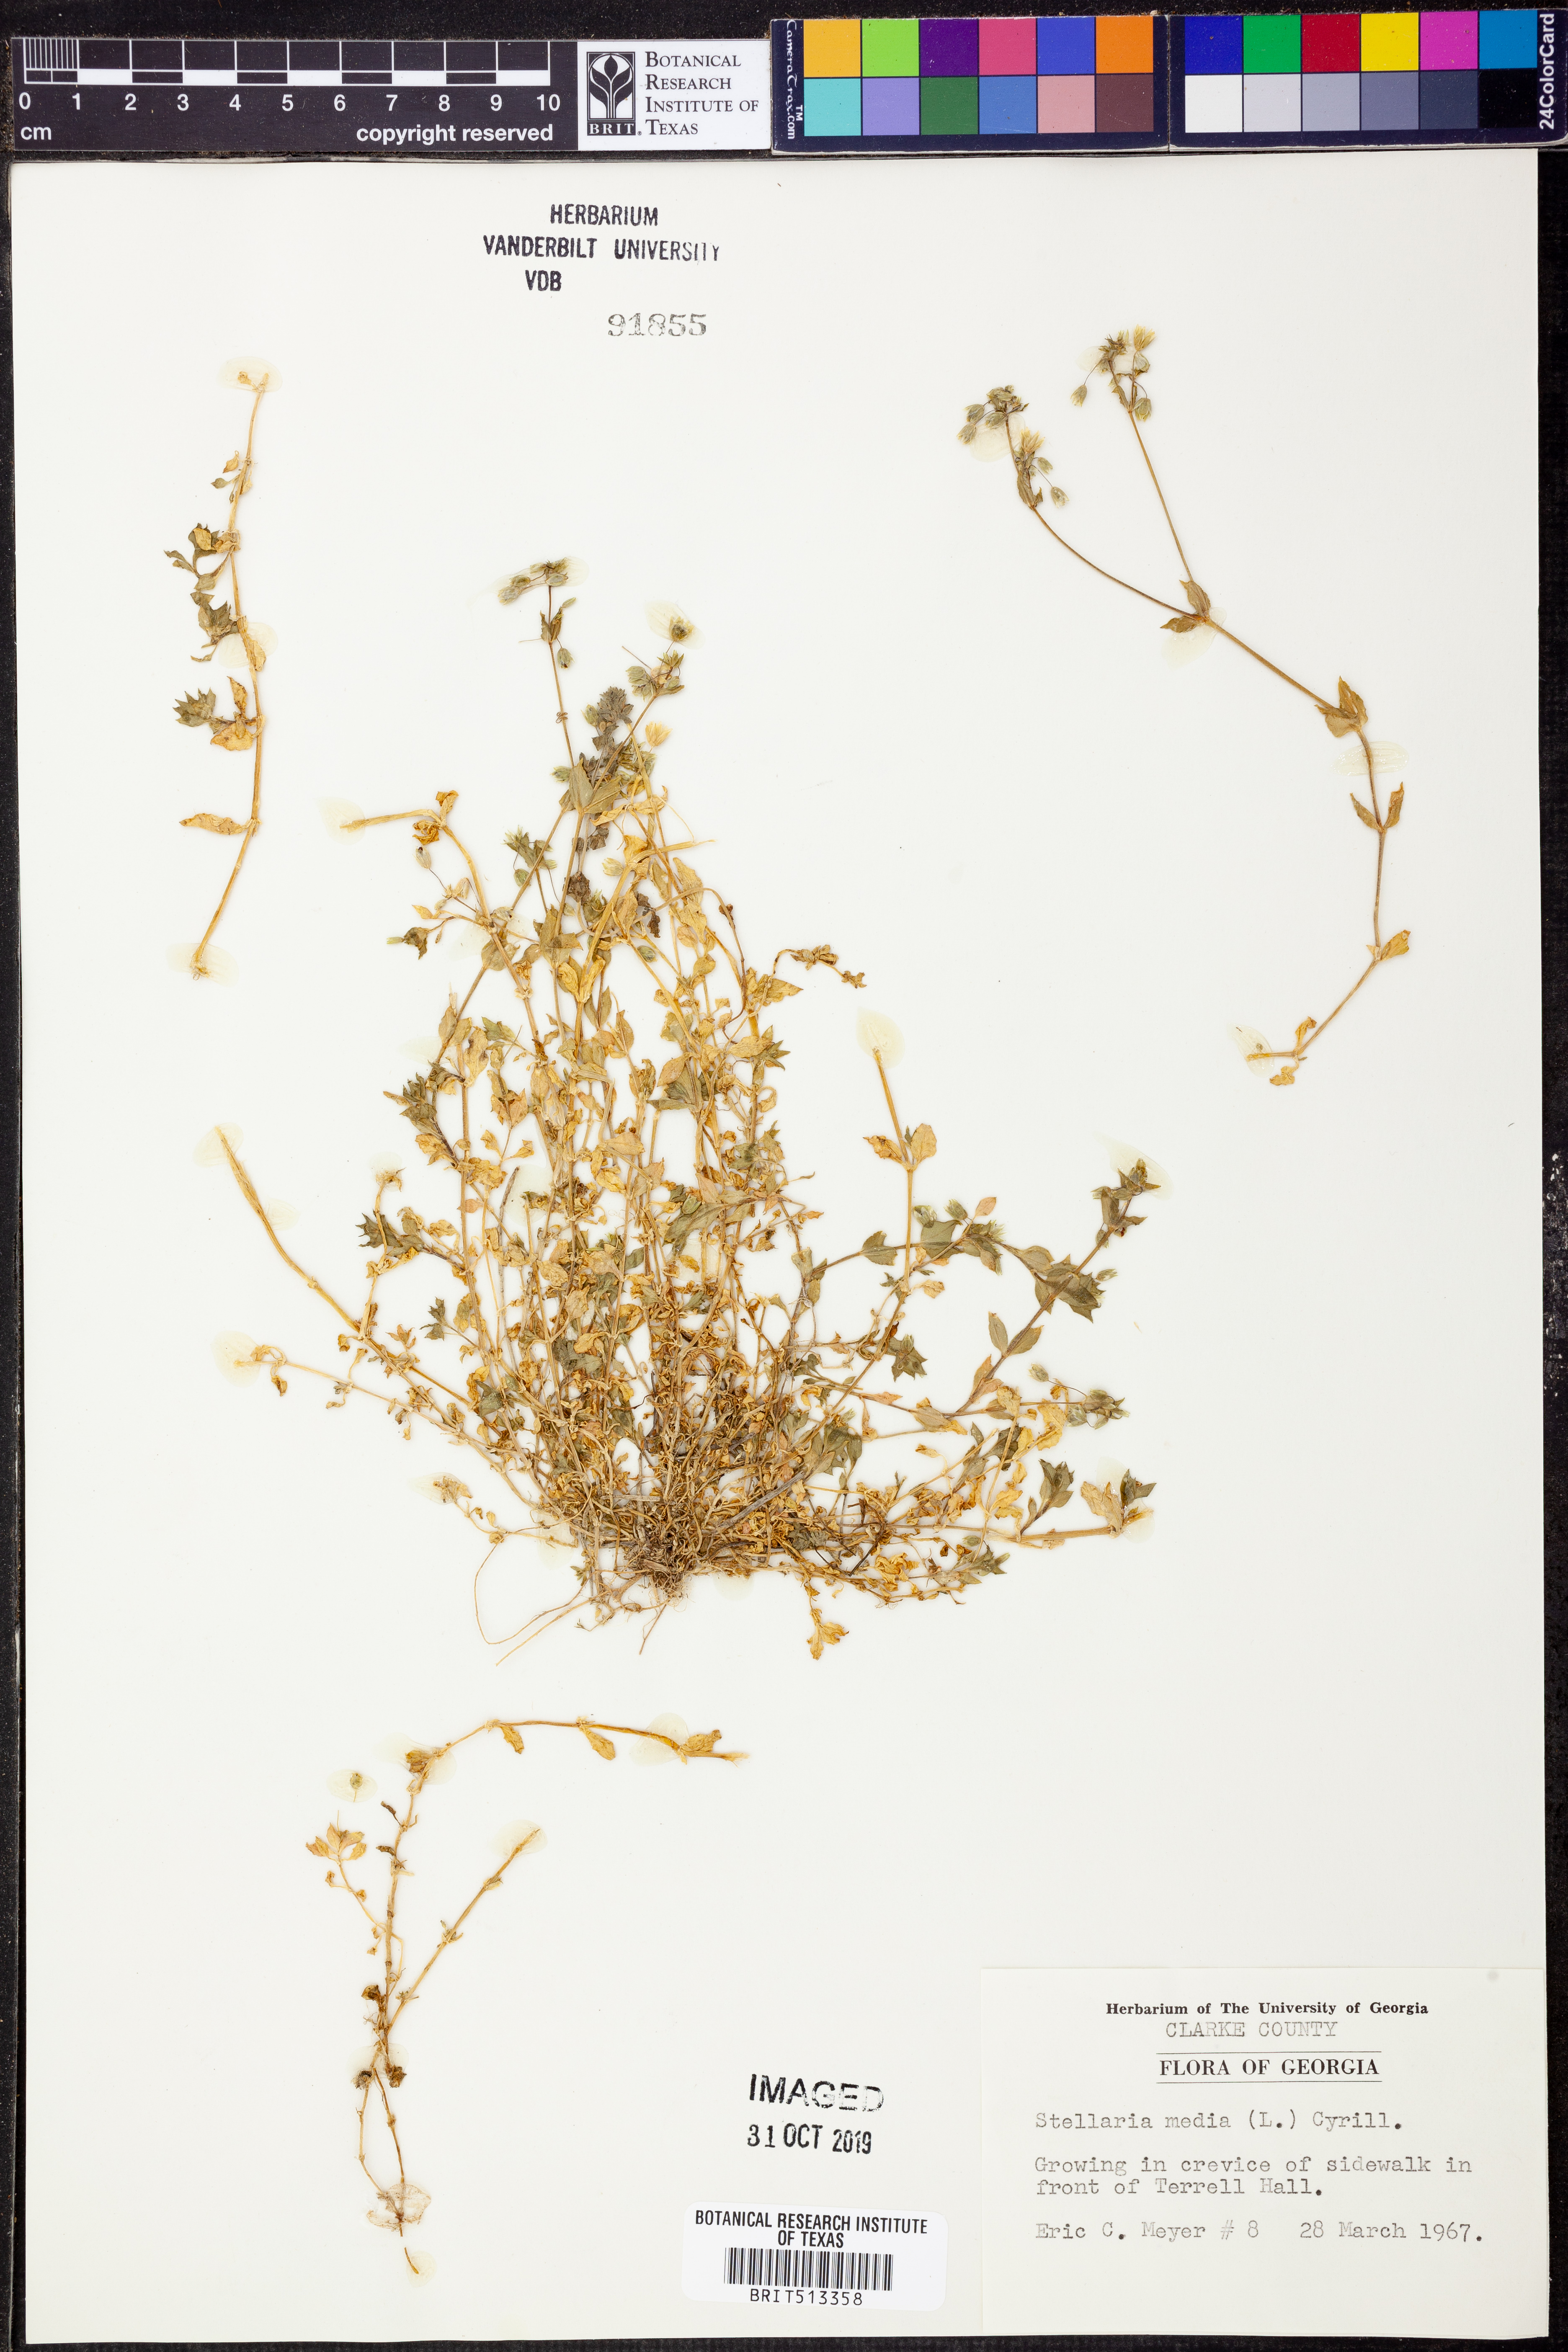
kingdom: Plantae
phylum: Tracheophyta
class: Magnoliopsida
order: Caryophyllales
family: Caryophyllaceae
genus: Stellaria
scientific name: Stellaria media
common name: Common chickweed
